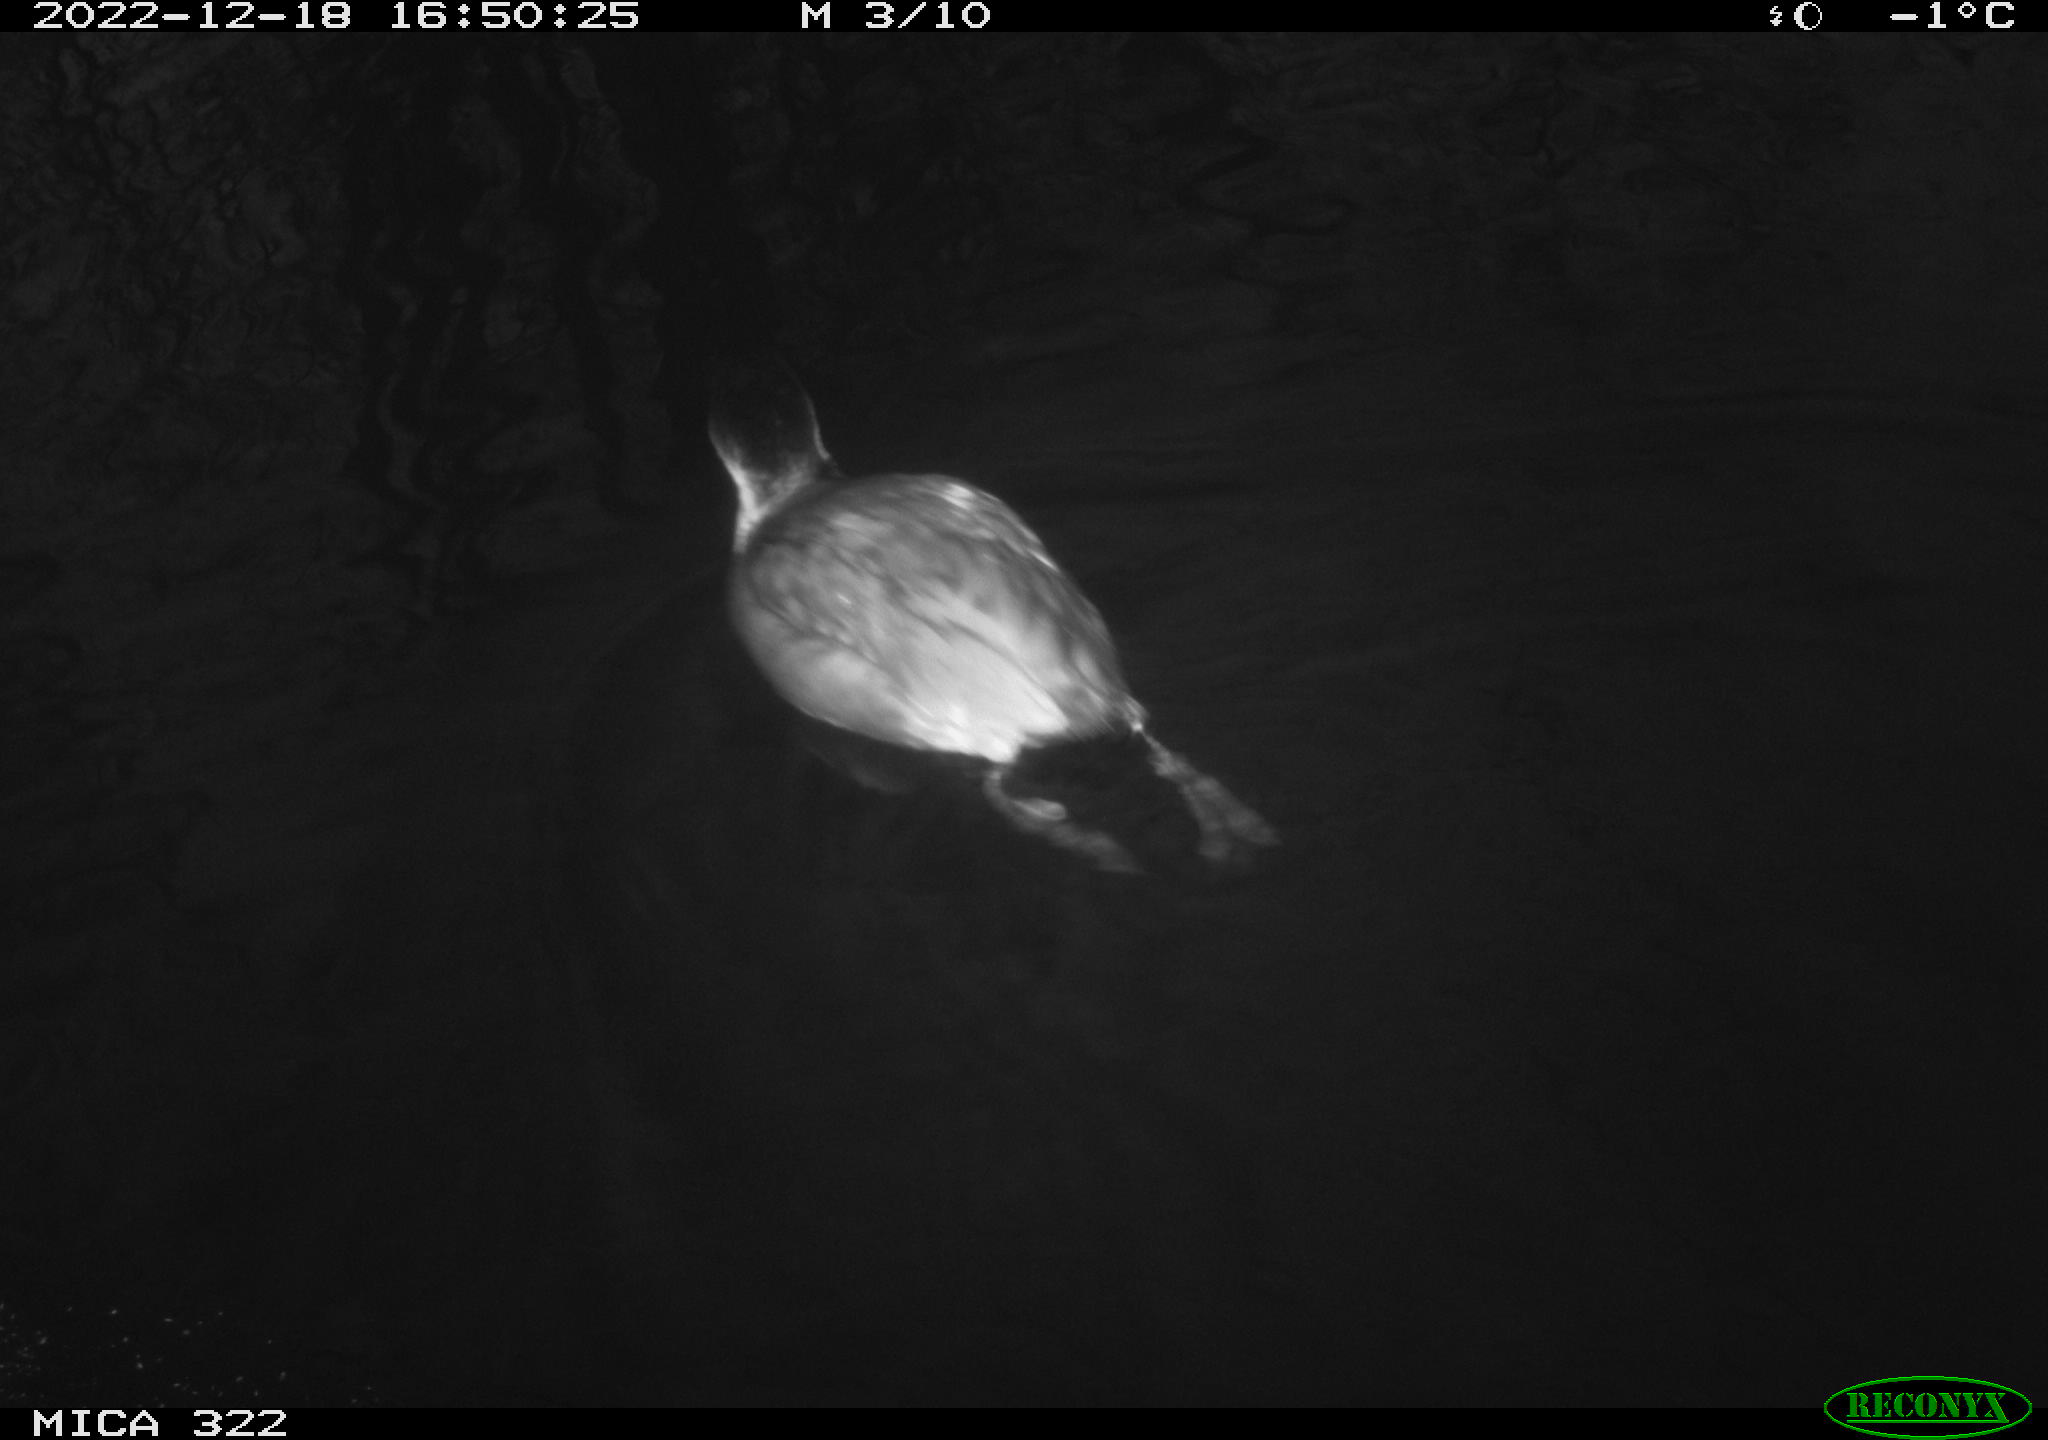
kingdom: Animalia
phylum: Chordata
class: Aves
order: Anseriformes
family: Anatidae
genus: Anas
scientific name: Anas
